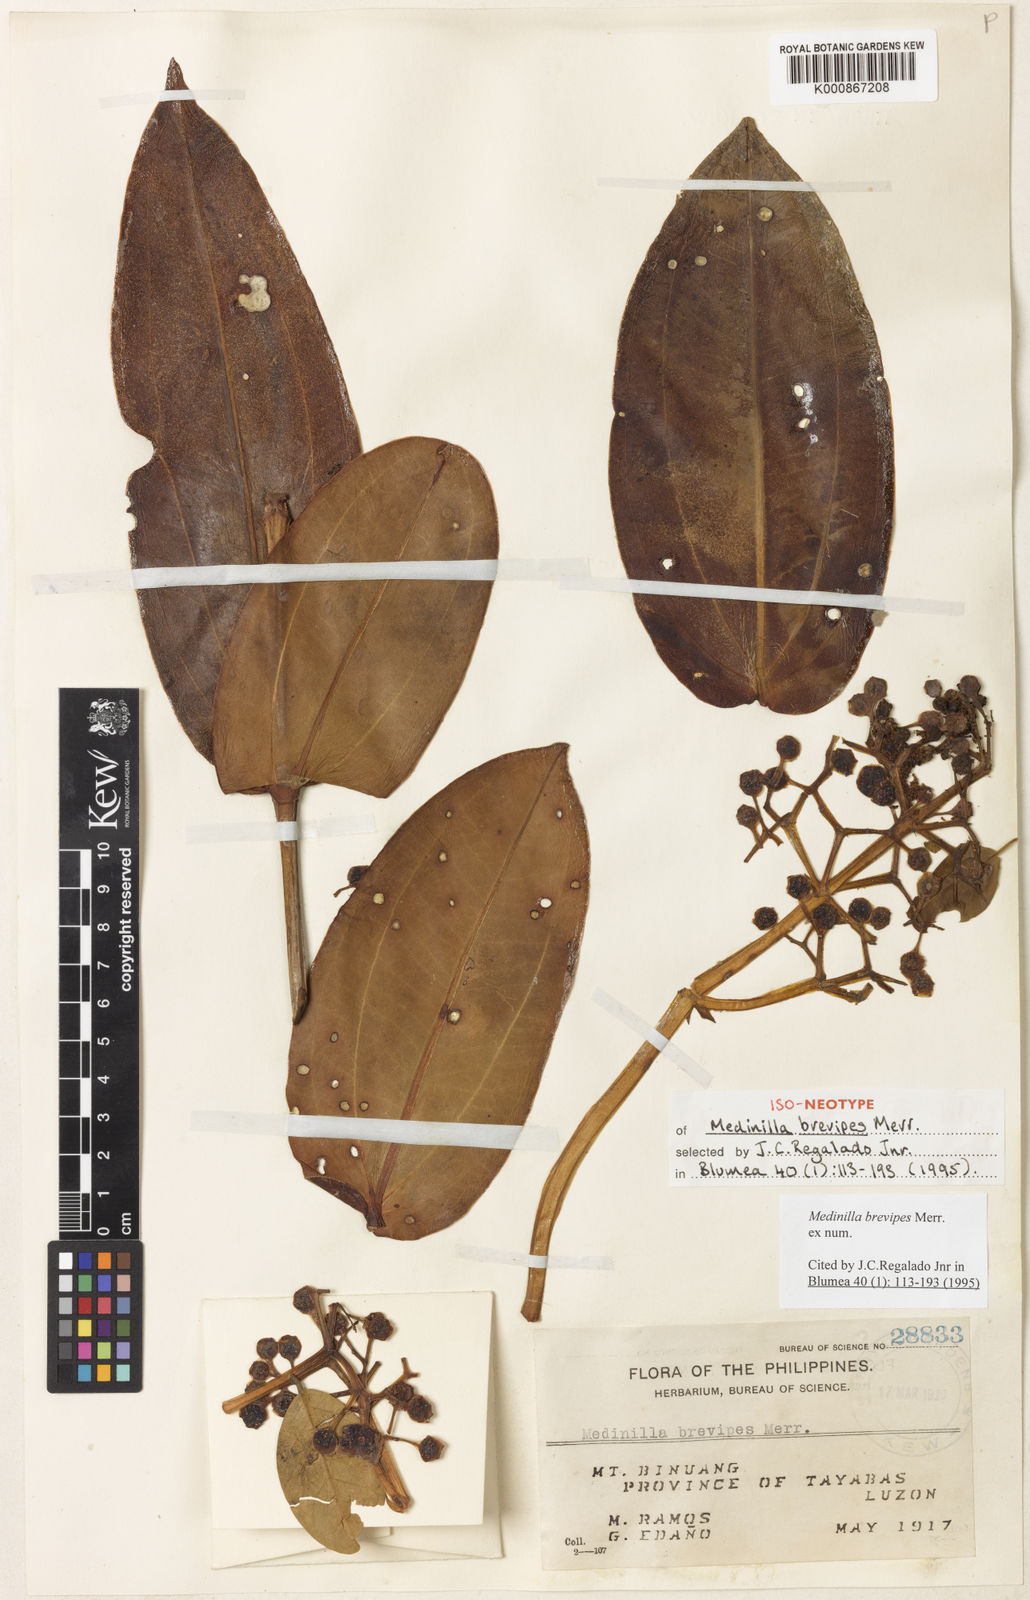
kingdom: Plantae
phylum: Tracheophyta
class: Magnoliopsida
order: Myrtales
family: Melastomataceae
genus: Medinilla
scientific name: Medinilla brevipes
